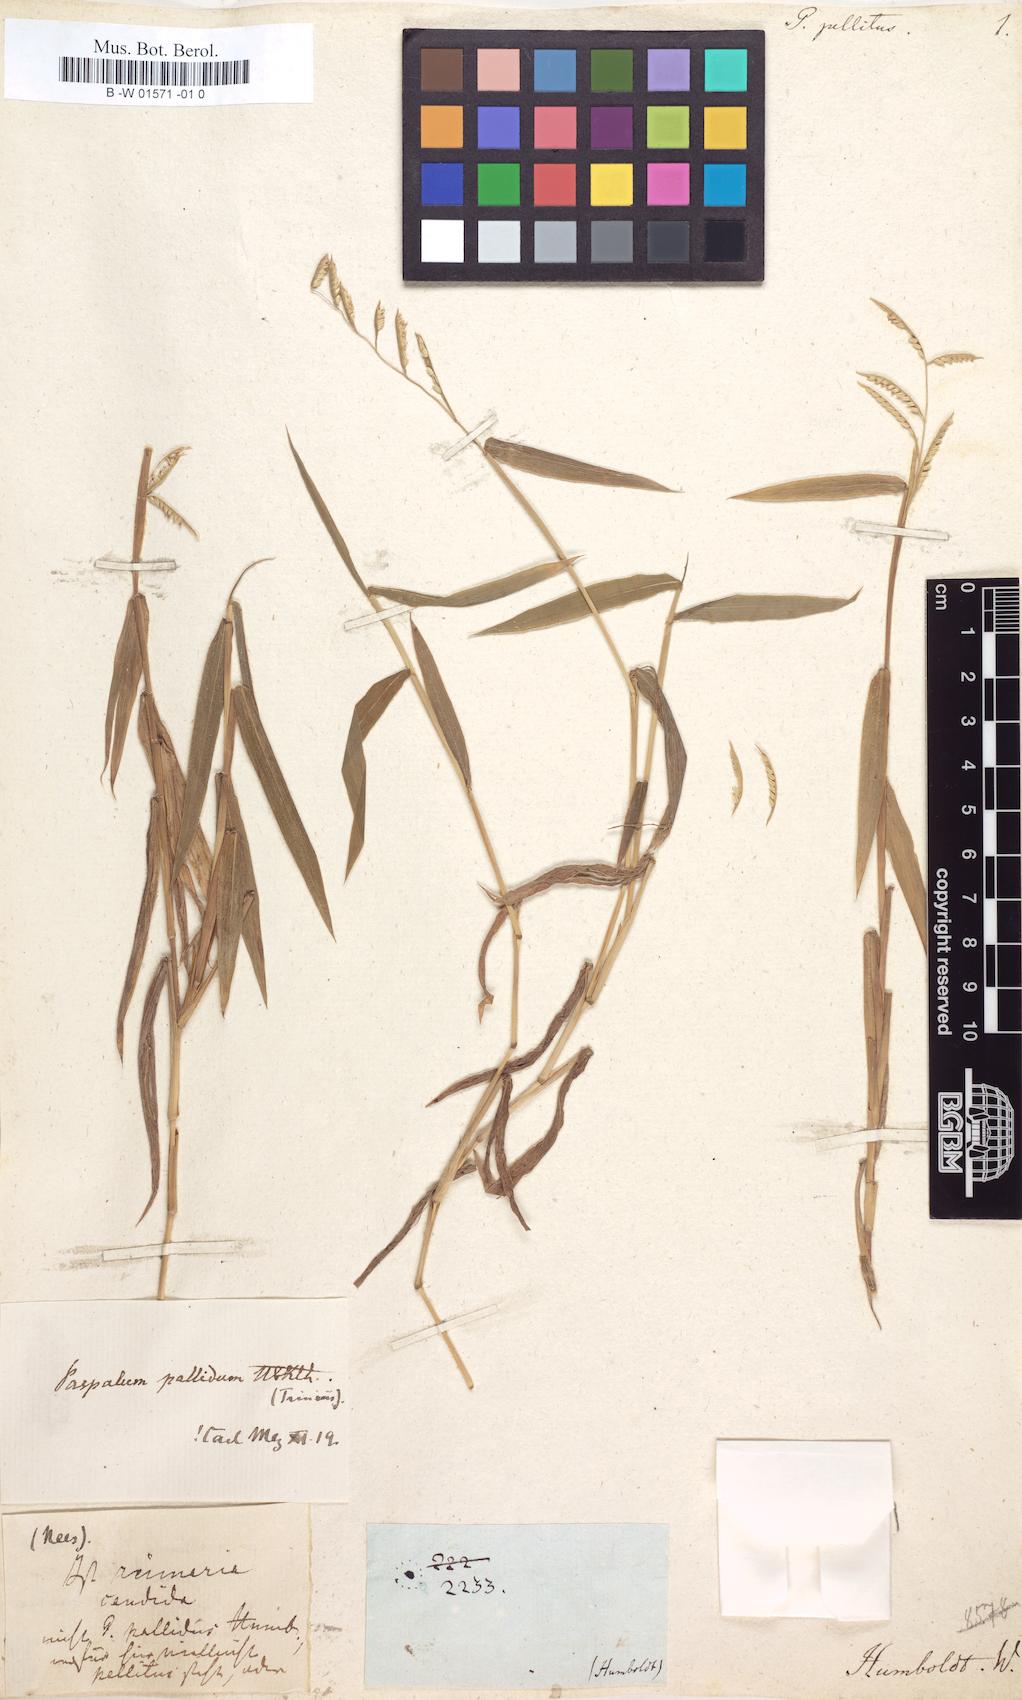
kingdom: Plantae
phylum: Tracheophyta
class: Liliopsida
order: Poales
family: Poaceae
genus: Paspalum
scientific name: Paspalum pallidum
